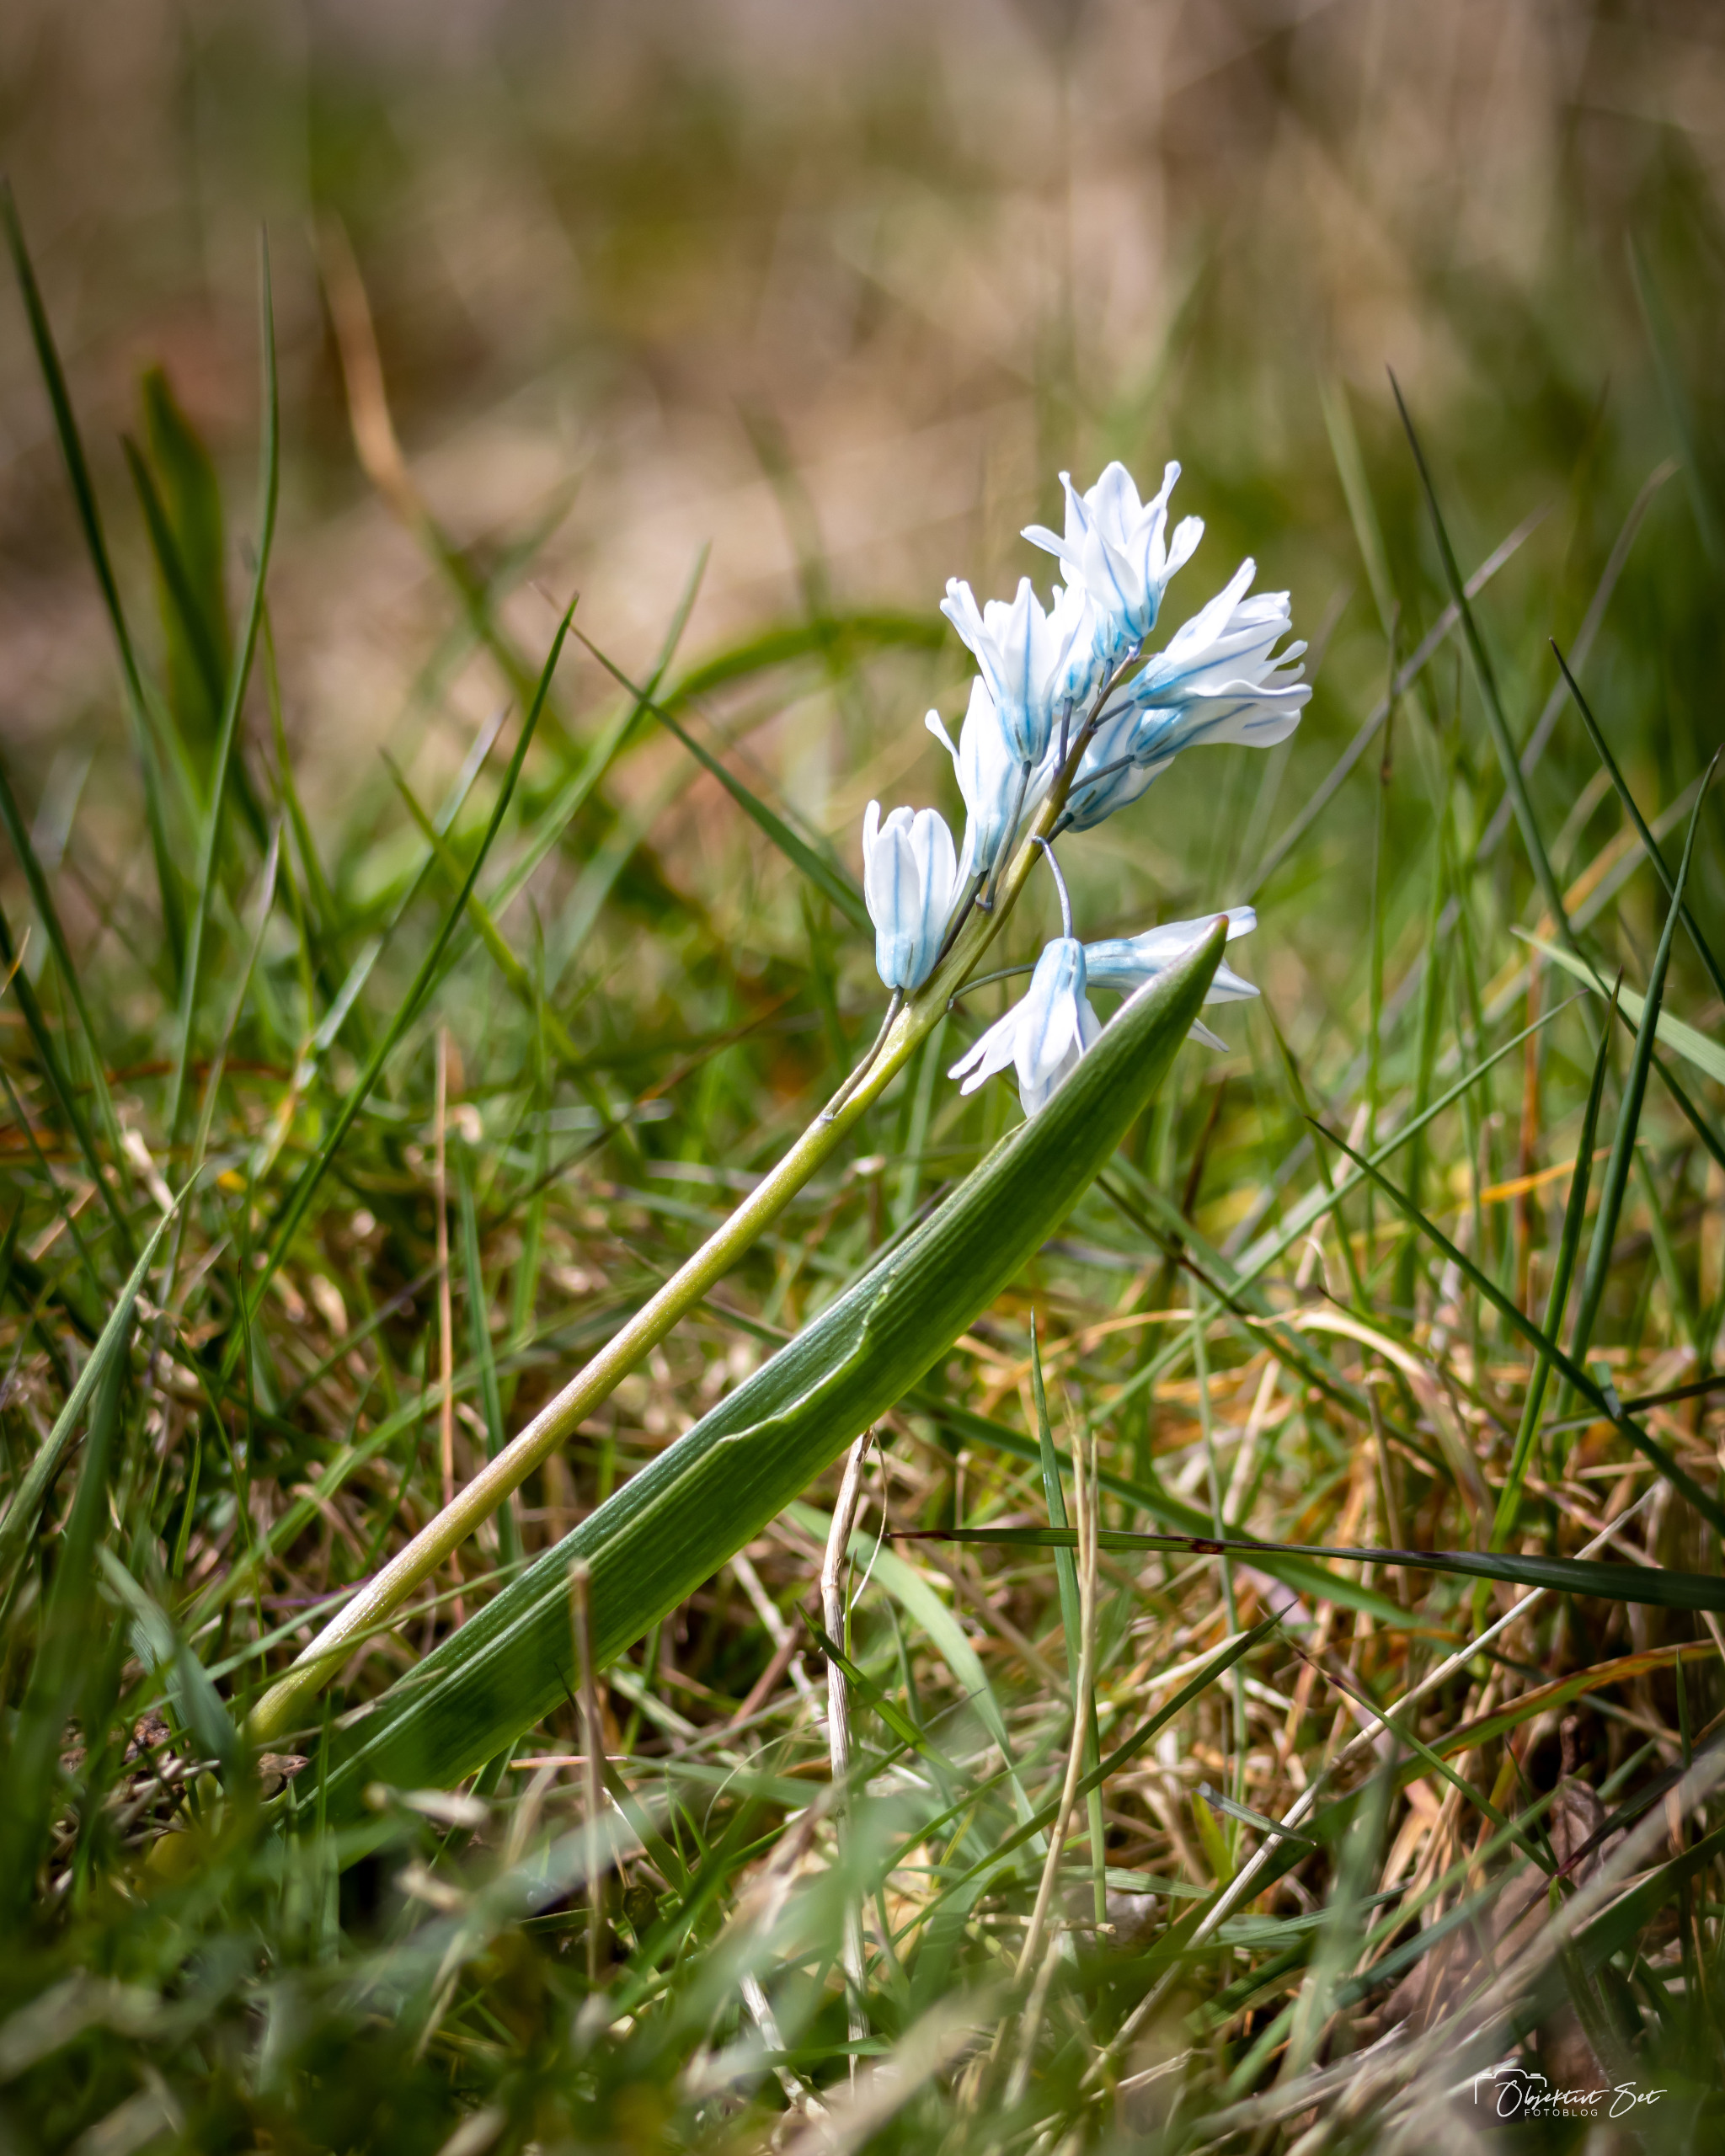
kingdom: Plantae
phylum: Tracheophyta
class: Liliopsida
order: Asparagales
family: Asparagaceae
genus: Puschkinia
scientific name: Puschkinia scilloides
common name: Porcelænshyacint
